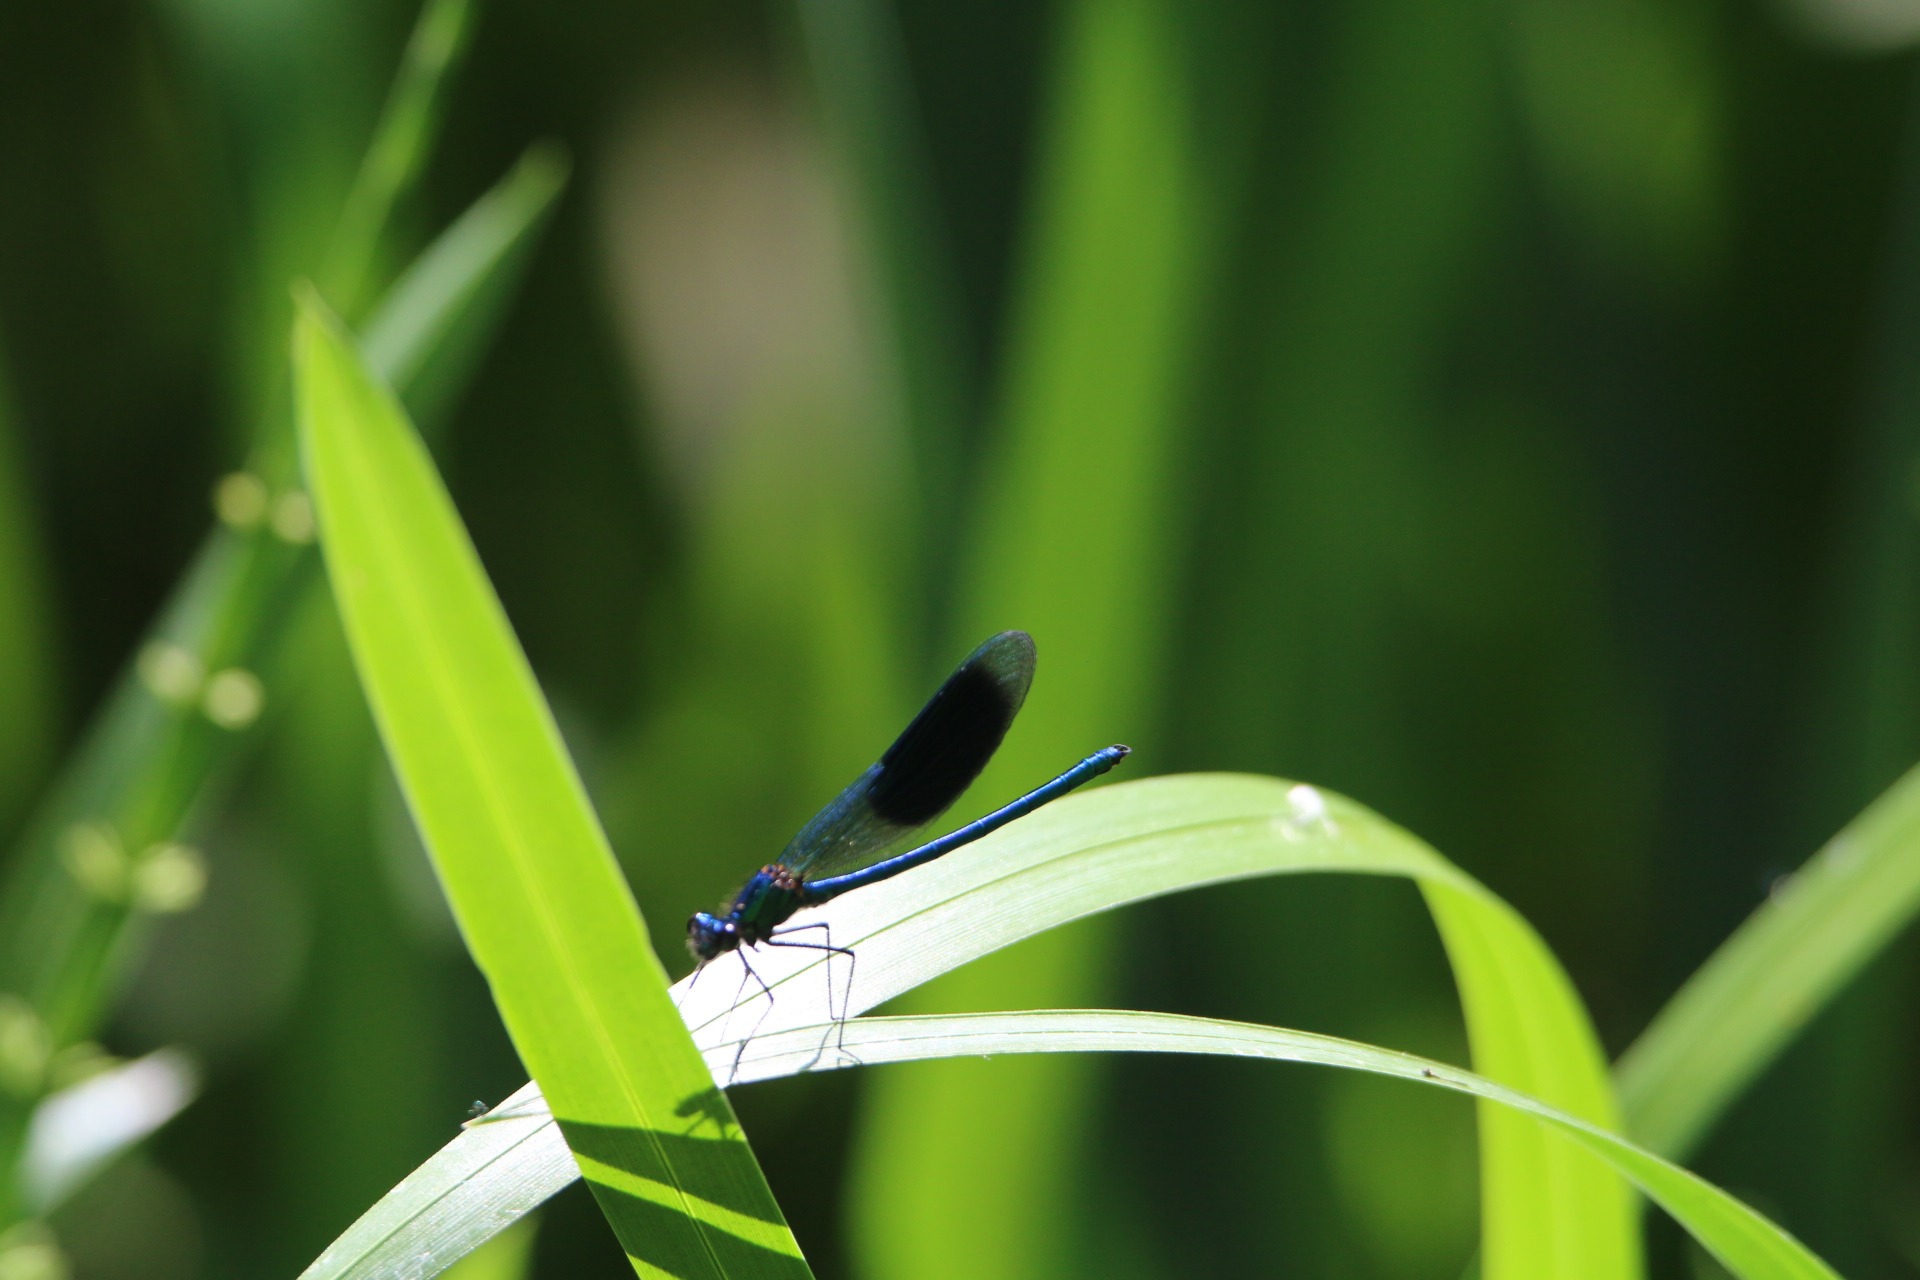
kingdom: Animalia
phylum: Arthropoda
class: Insecta
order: Odonata
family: Calopterygidae
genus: Calopteryx
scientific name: Calopteryx splendens
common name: Blåbåndet pragtvandnymfe
